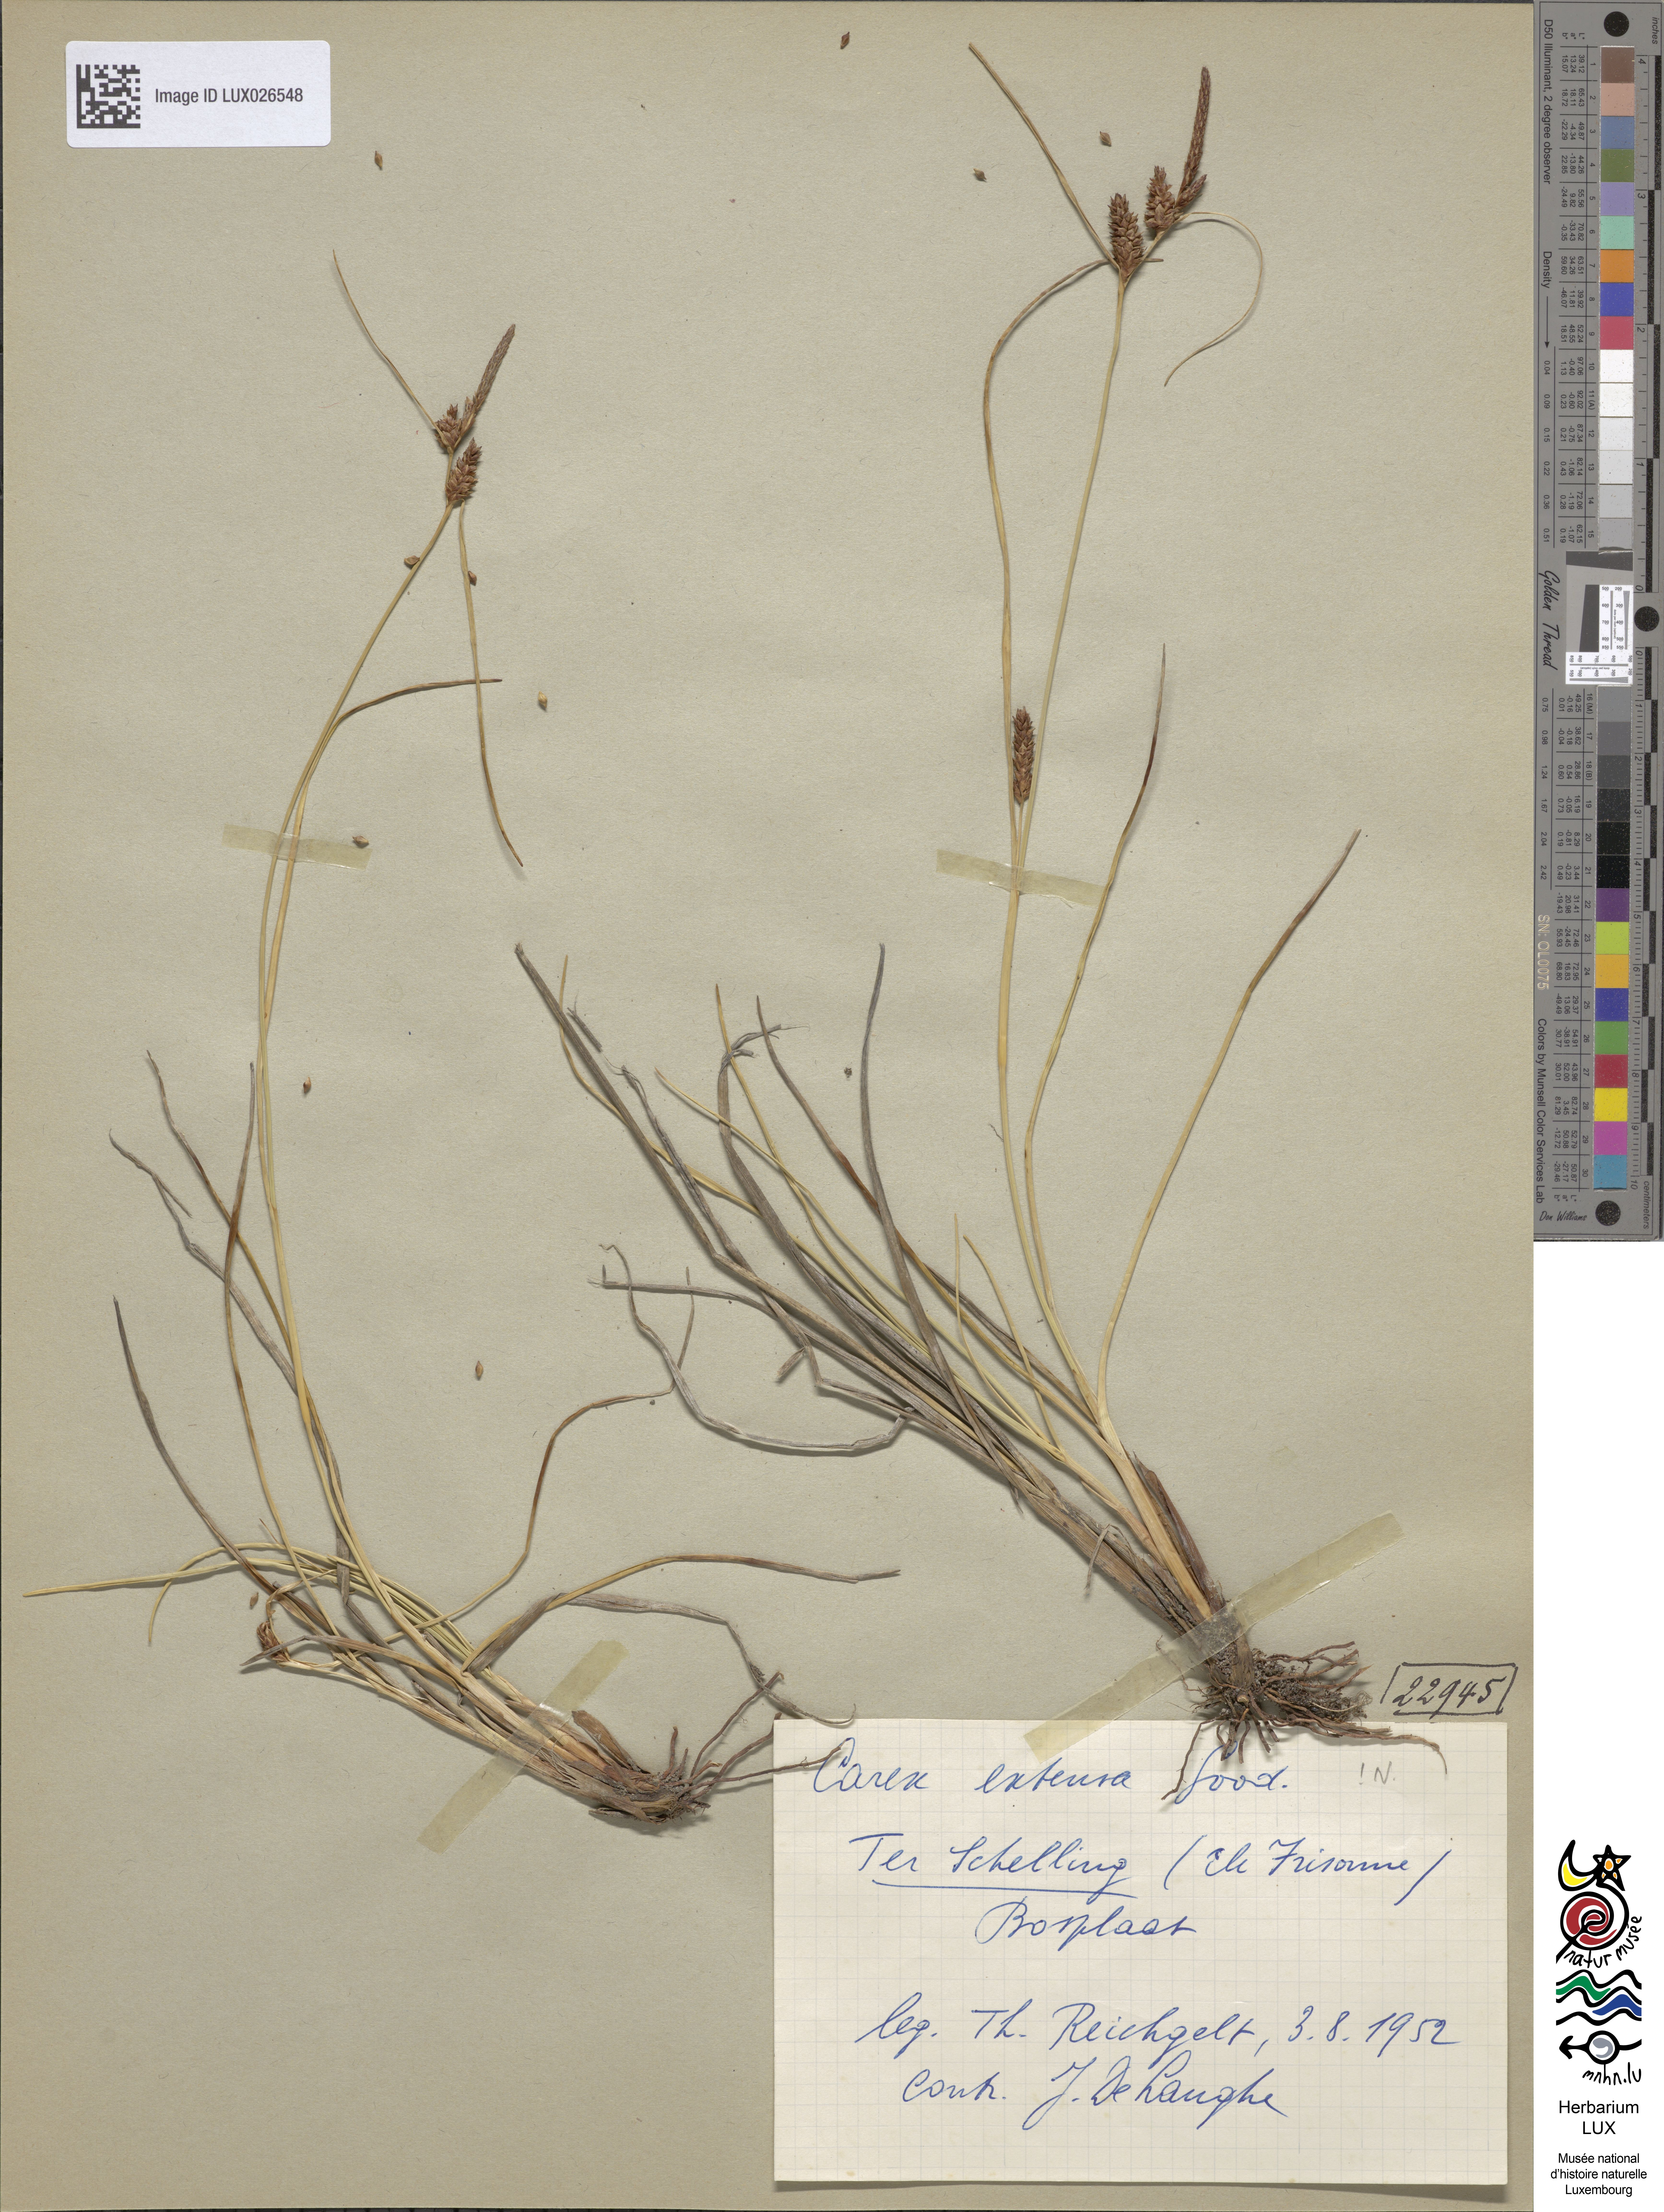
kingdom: Plantae
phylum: Tracheophyta
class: Liliopsida
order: Poales
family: Cyperaceae
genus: Carex
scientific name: Carex extensa
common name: Long-bracted sedge
